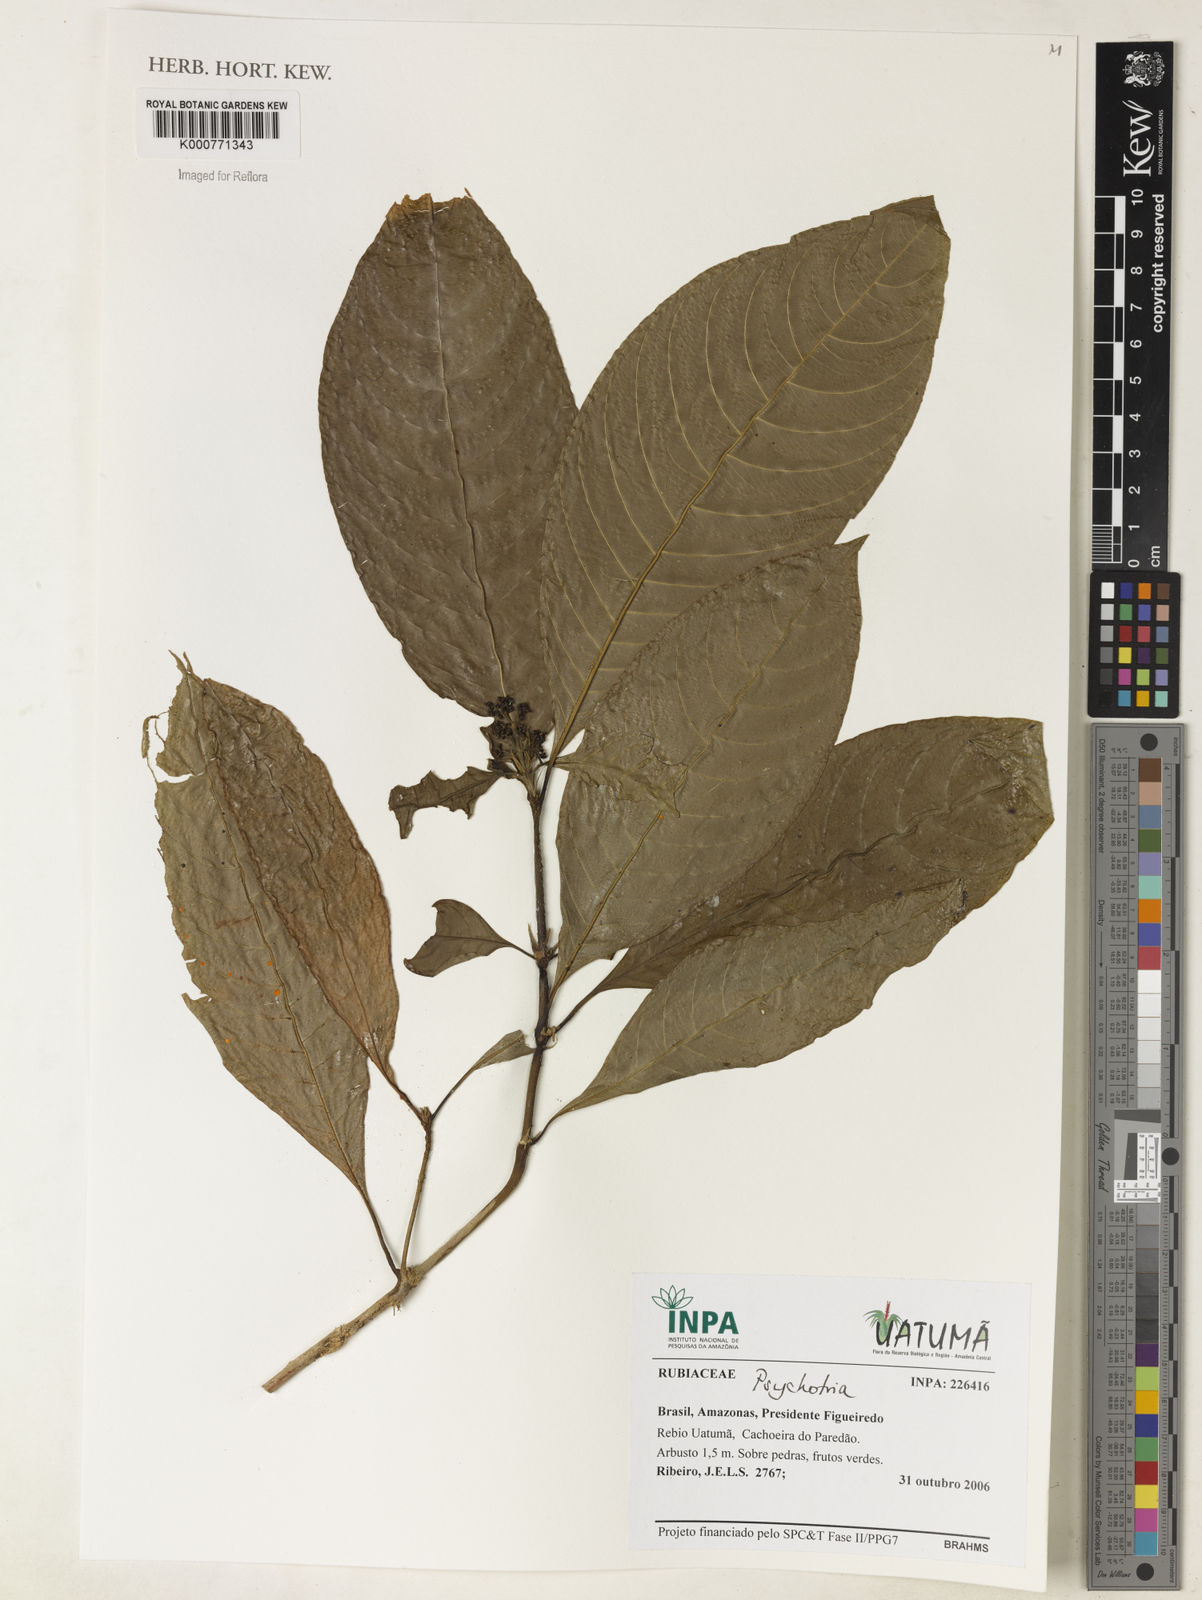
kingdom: Plantae
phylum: Tracheophyta
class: Magnoliopsida
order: Gentianales
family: Rubiaceae
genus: Psychotria
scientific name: Psychotria
